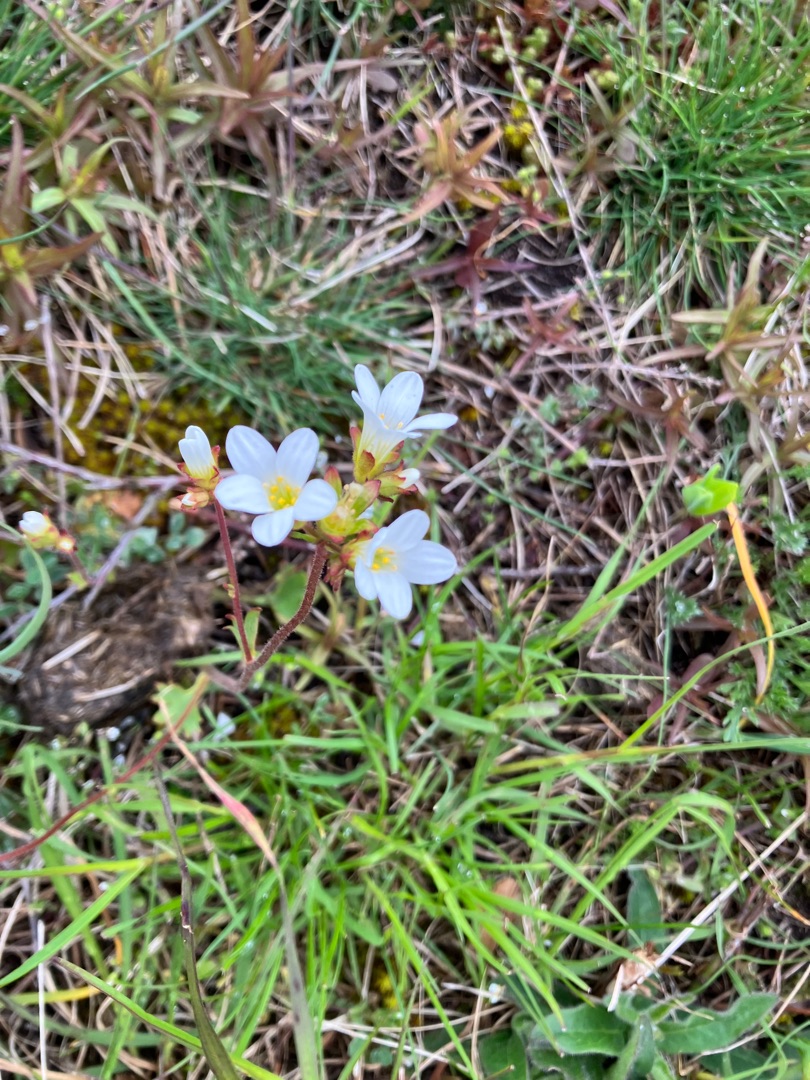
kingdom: Plantae
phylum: Tracheophyta
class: Magnoliopsida
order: Saxifragales
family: Saxifragaceae
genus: Saxifraga
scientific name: Saxifraga granulata
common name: Kornet stenbræk
